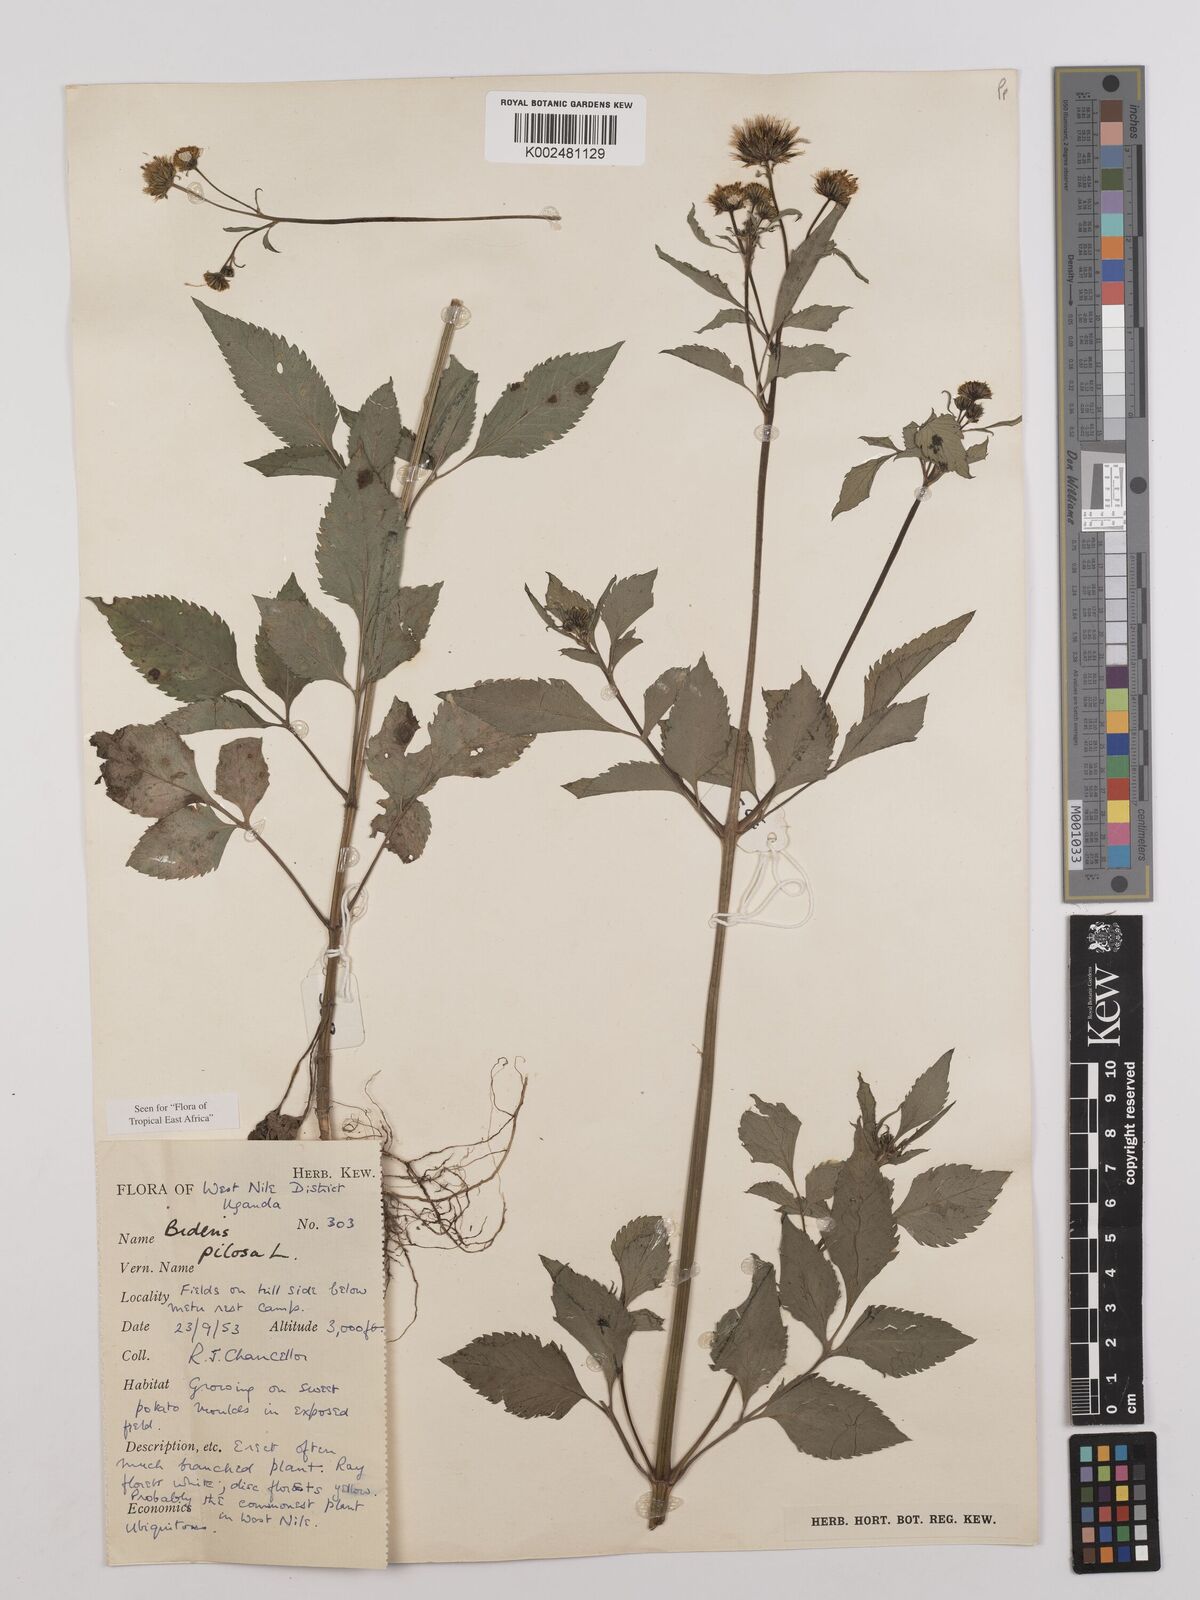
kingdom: Plantae
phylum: Tracheophyta
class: Magnoliopsida
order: Asterales
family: Asteraceae
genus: Bidens
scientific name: Bidens pilosa
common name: Black-jack
